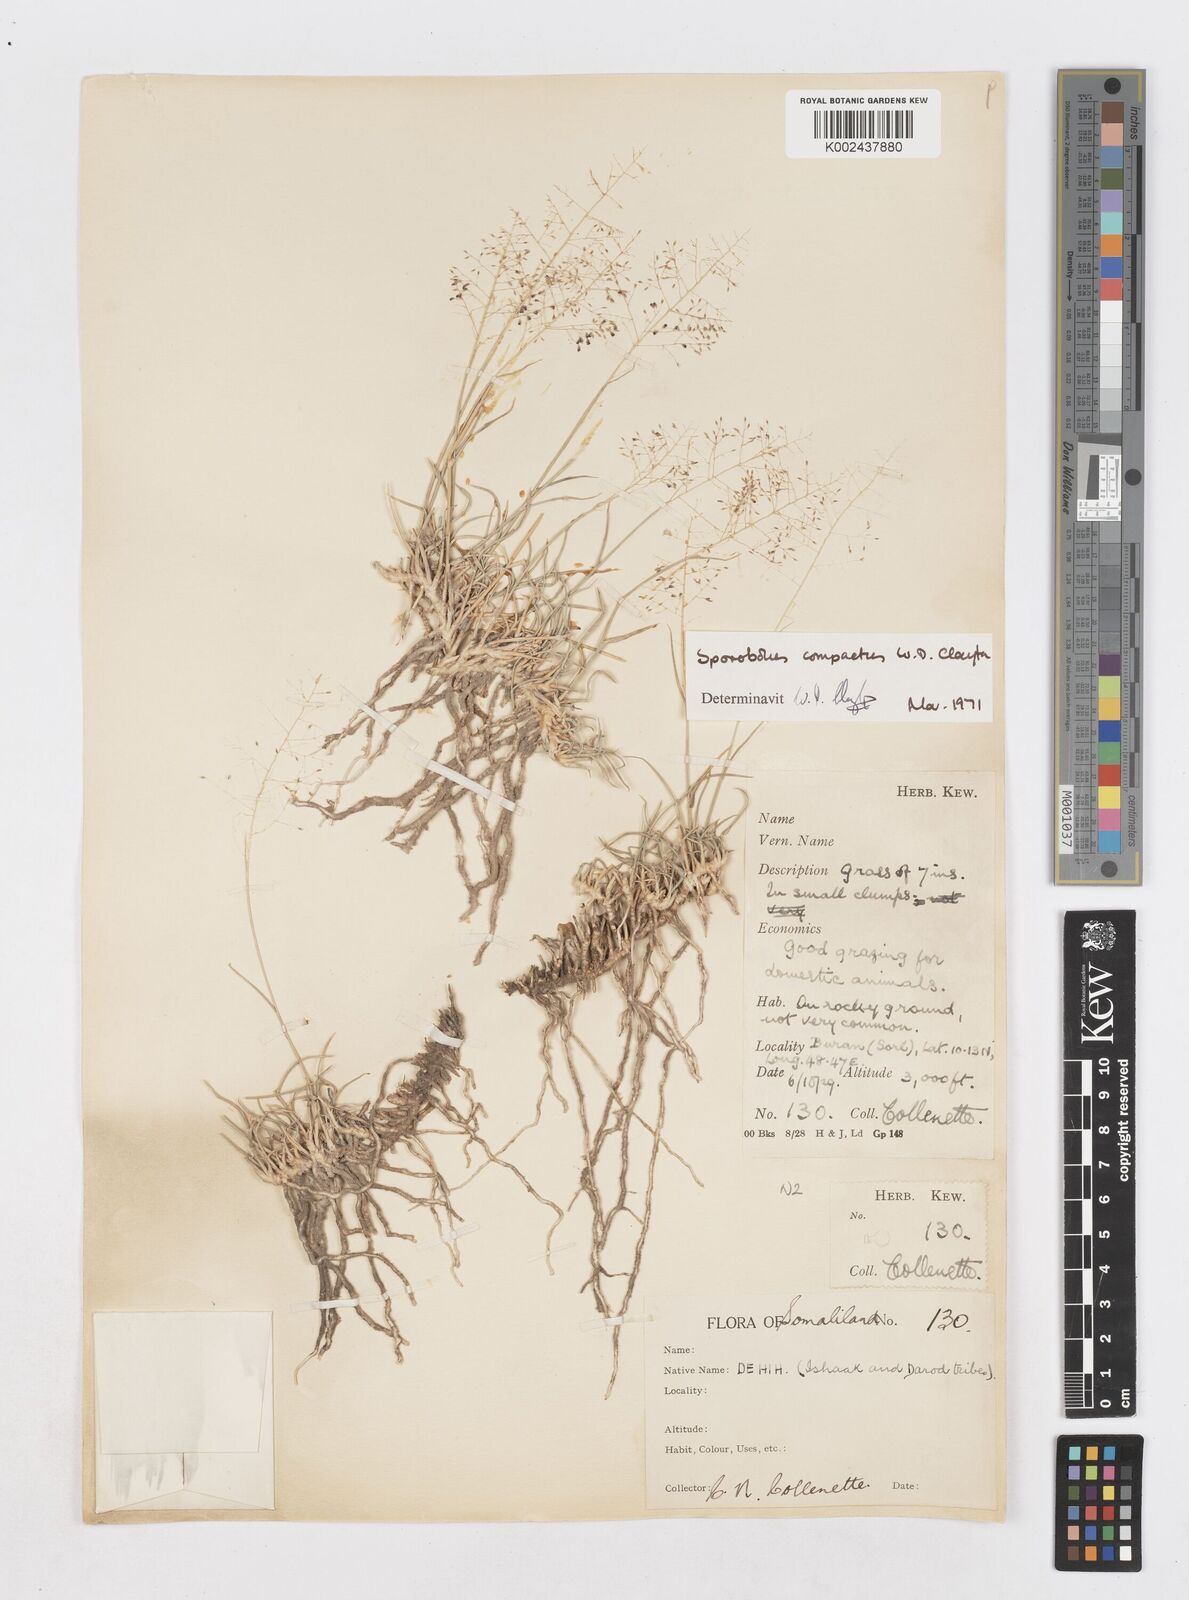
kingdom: Plantae
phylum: Tracheophyta
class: Liliopsida
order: Poales
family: Poaceae
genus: Sporobolus
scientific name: Sporobolus compactus
